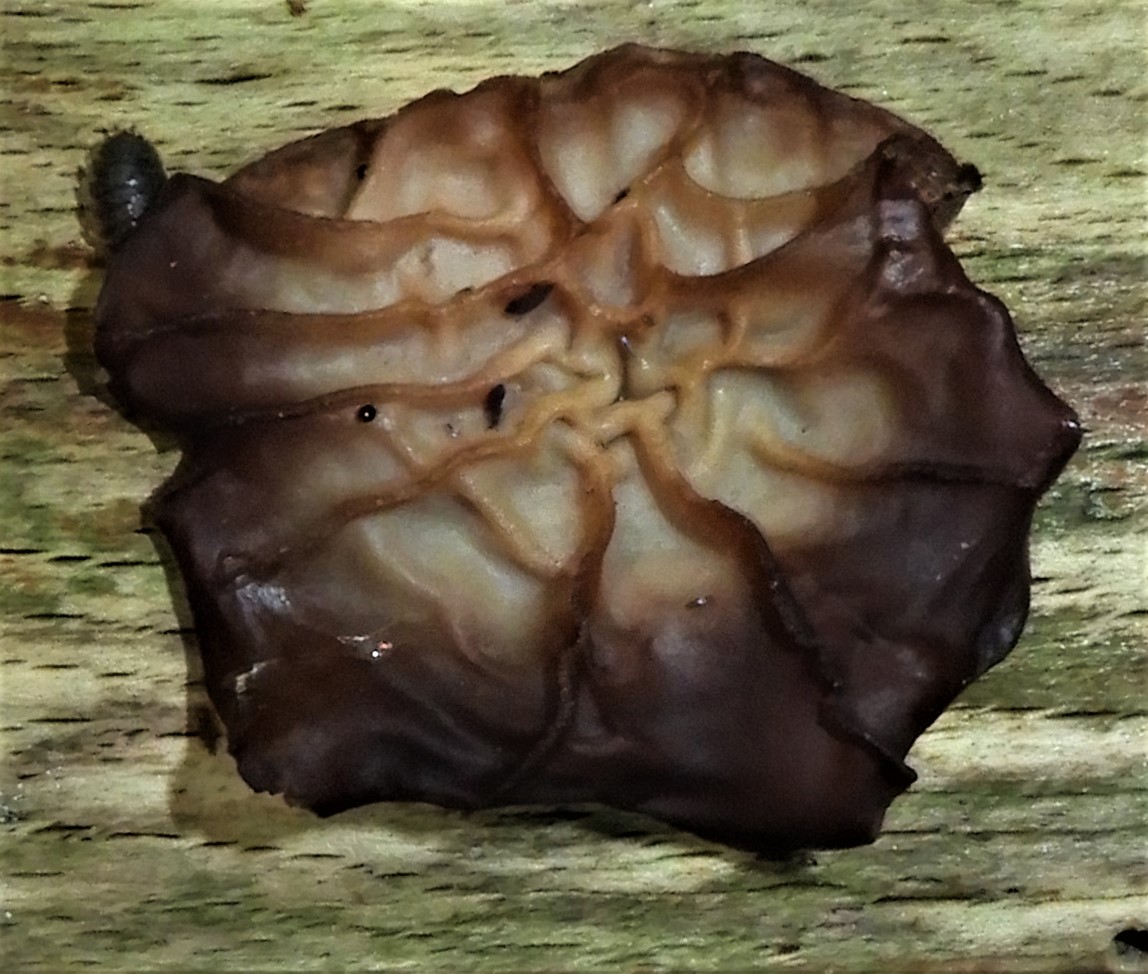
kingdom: Fungi
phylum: Basidiomycota
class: Agaricomycetes
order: Auriculariales
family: Auriculariaceae
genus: Auricularia
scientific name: Auricularia auricula-judae
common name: almindelig judasøre
